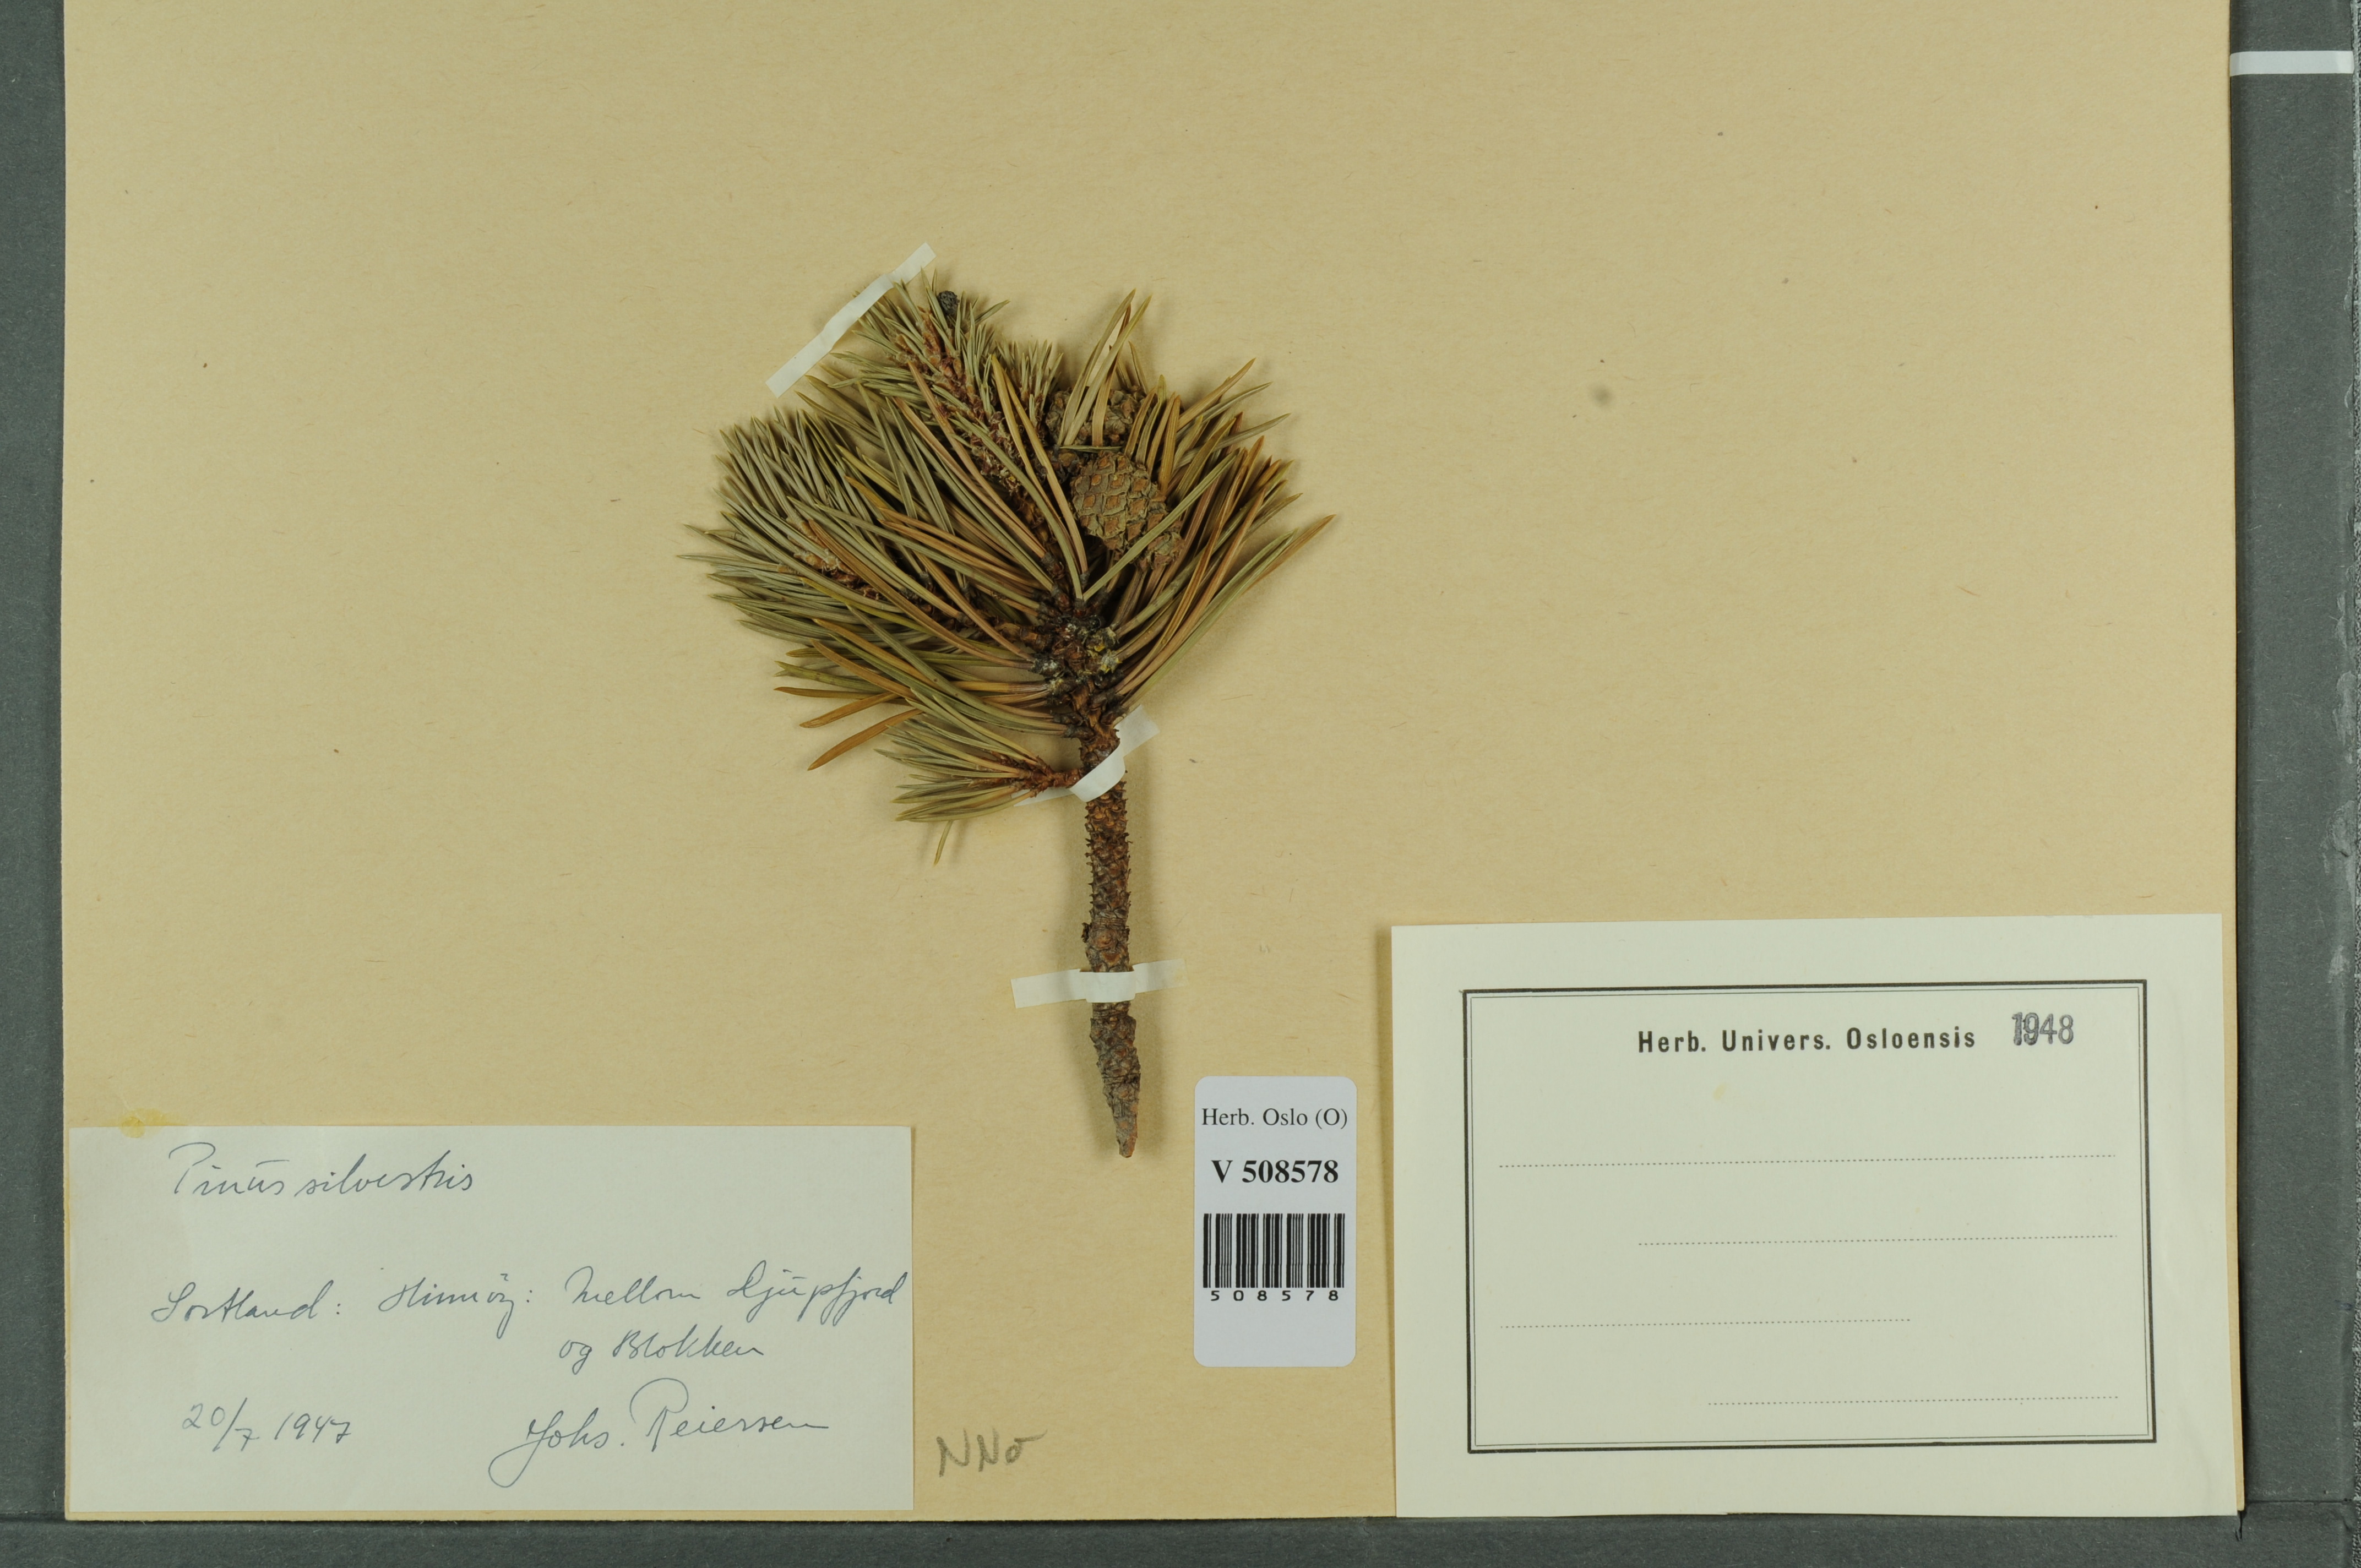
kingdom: Plantae
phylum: Tracheophyta
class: Pinopsida
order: Pinales
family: Pinaceae
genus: Pinus
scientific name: Pinus sylvestris
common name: Scots pine
